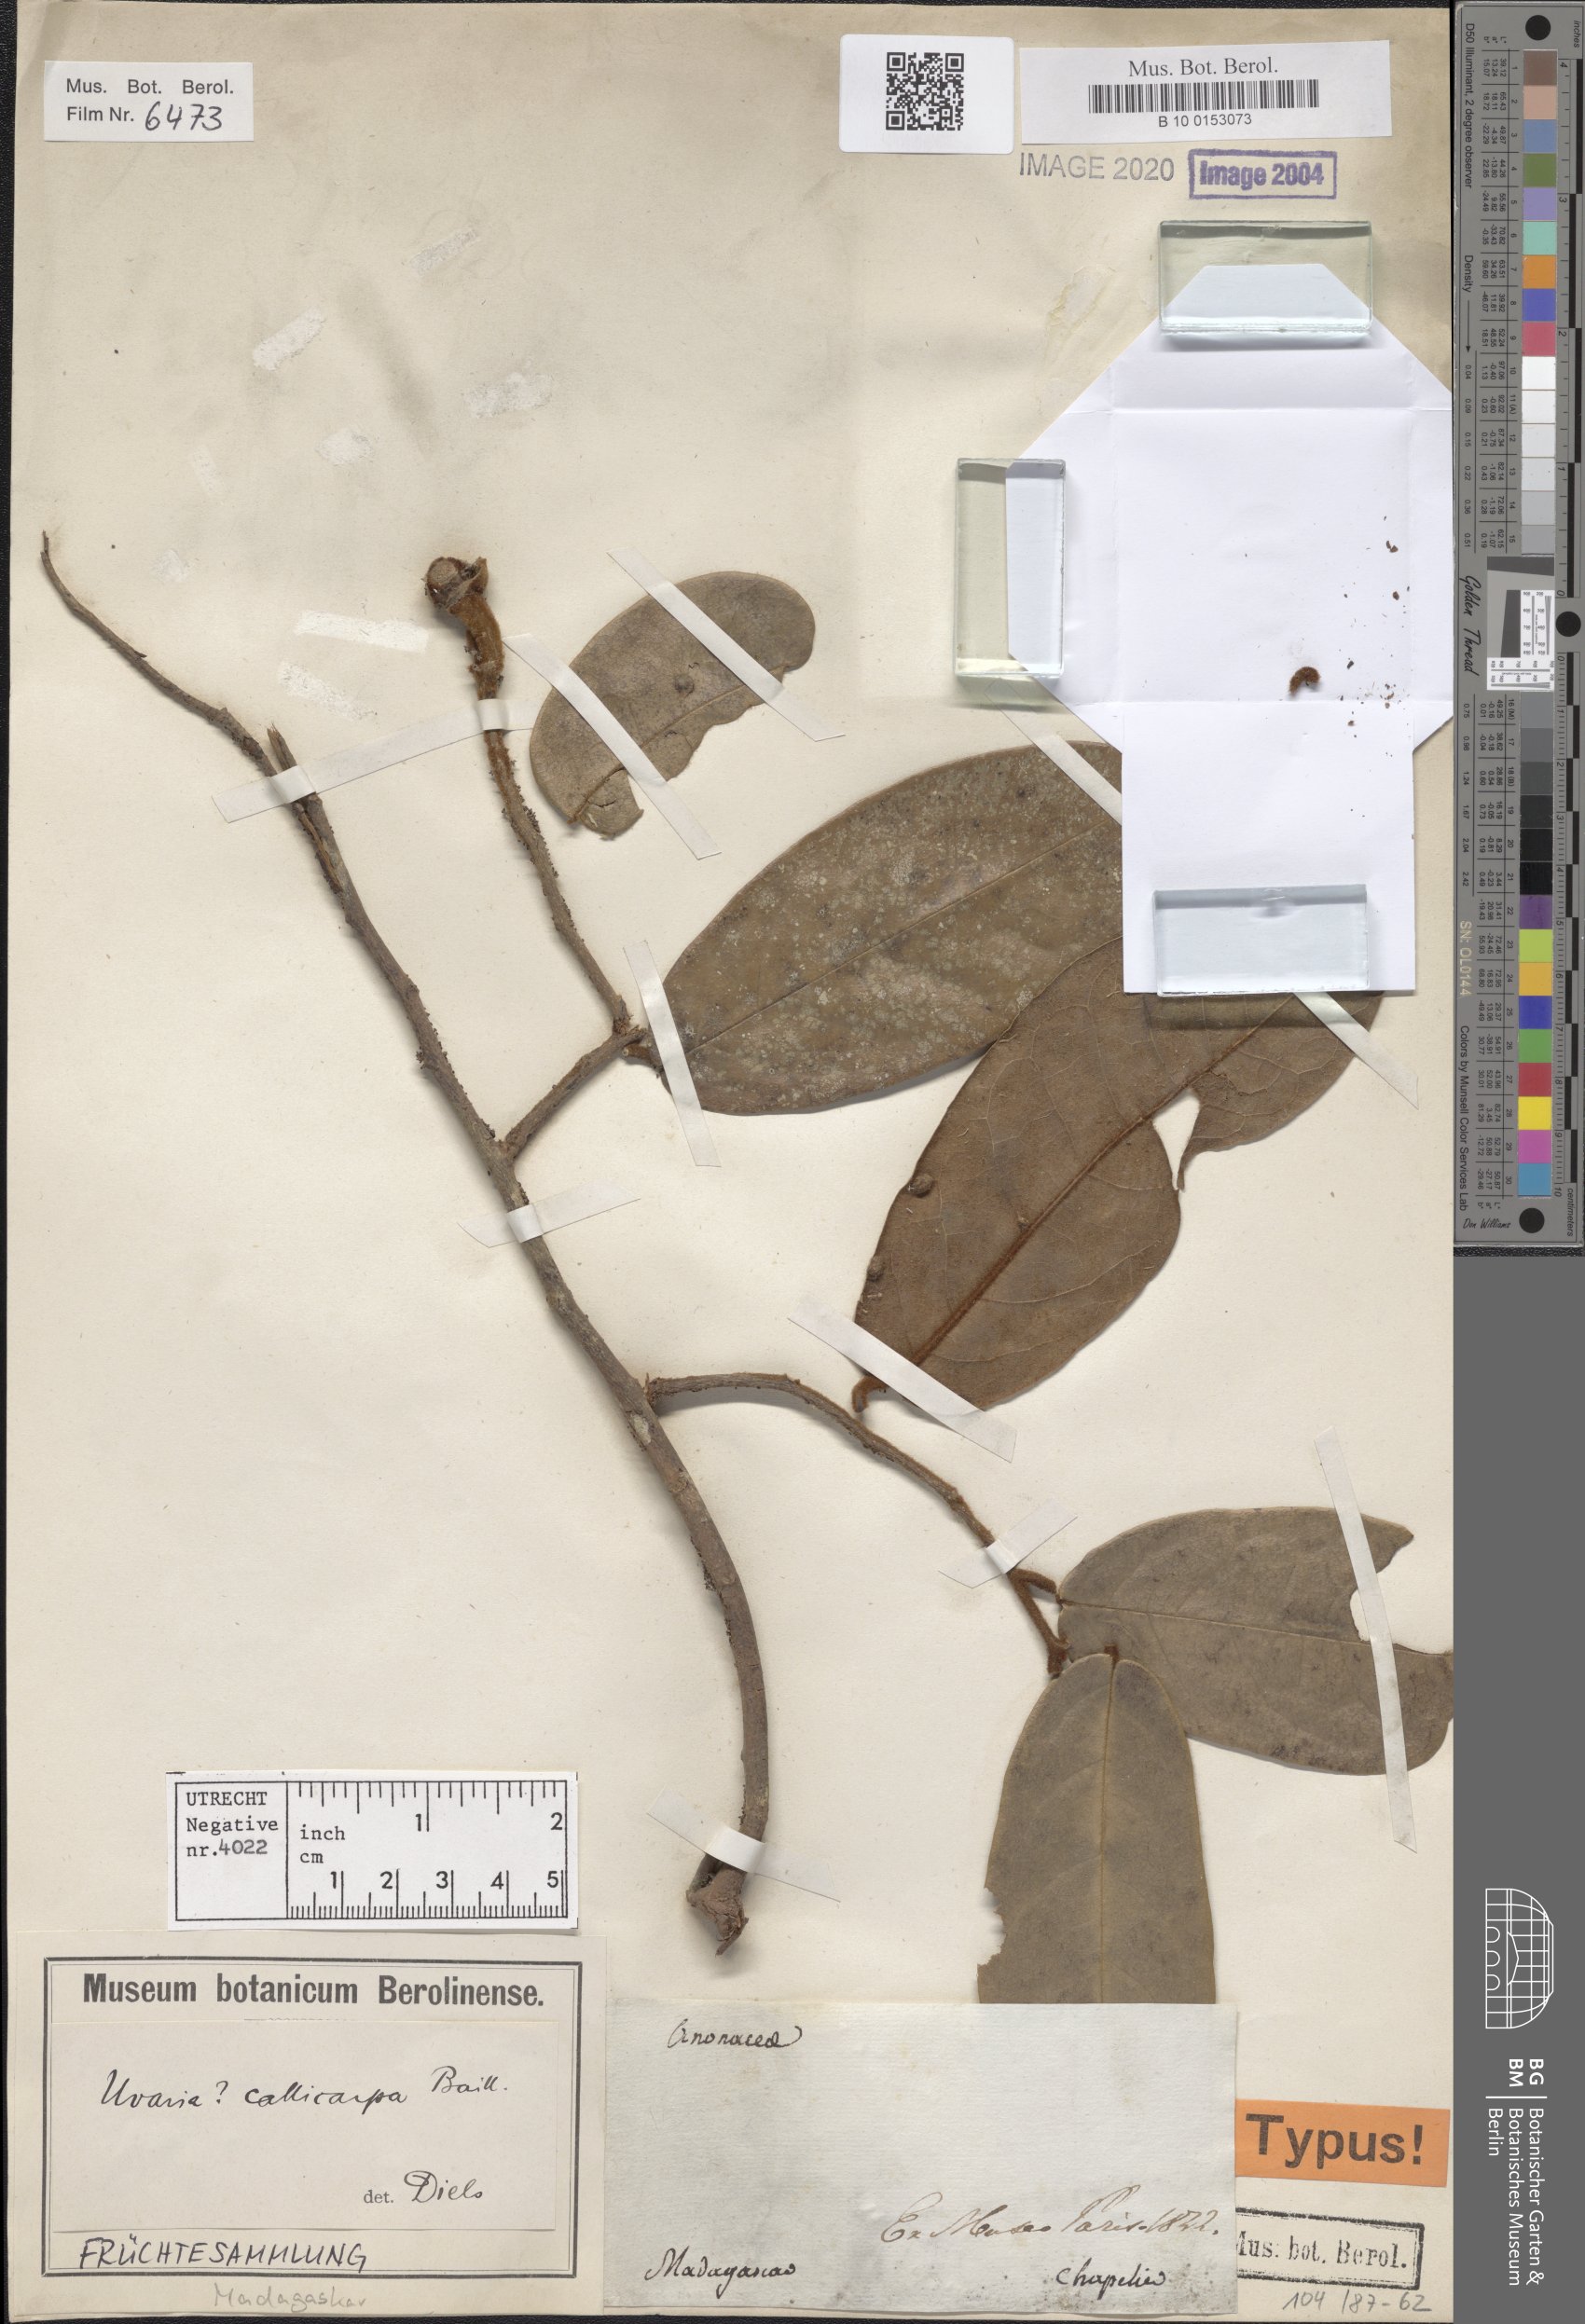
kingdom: Plantae
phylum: Tracheophyta
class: Magnoliopsida
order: Magnoliales
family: Annonaceae
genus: Uvaria
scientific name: Uvaria callicarpa
